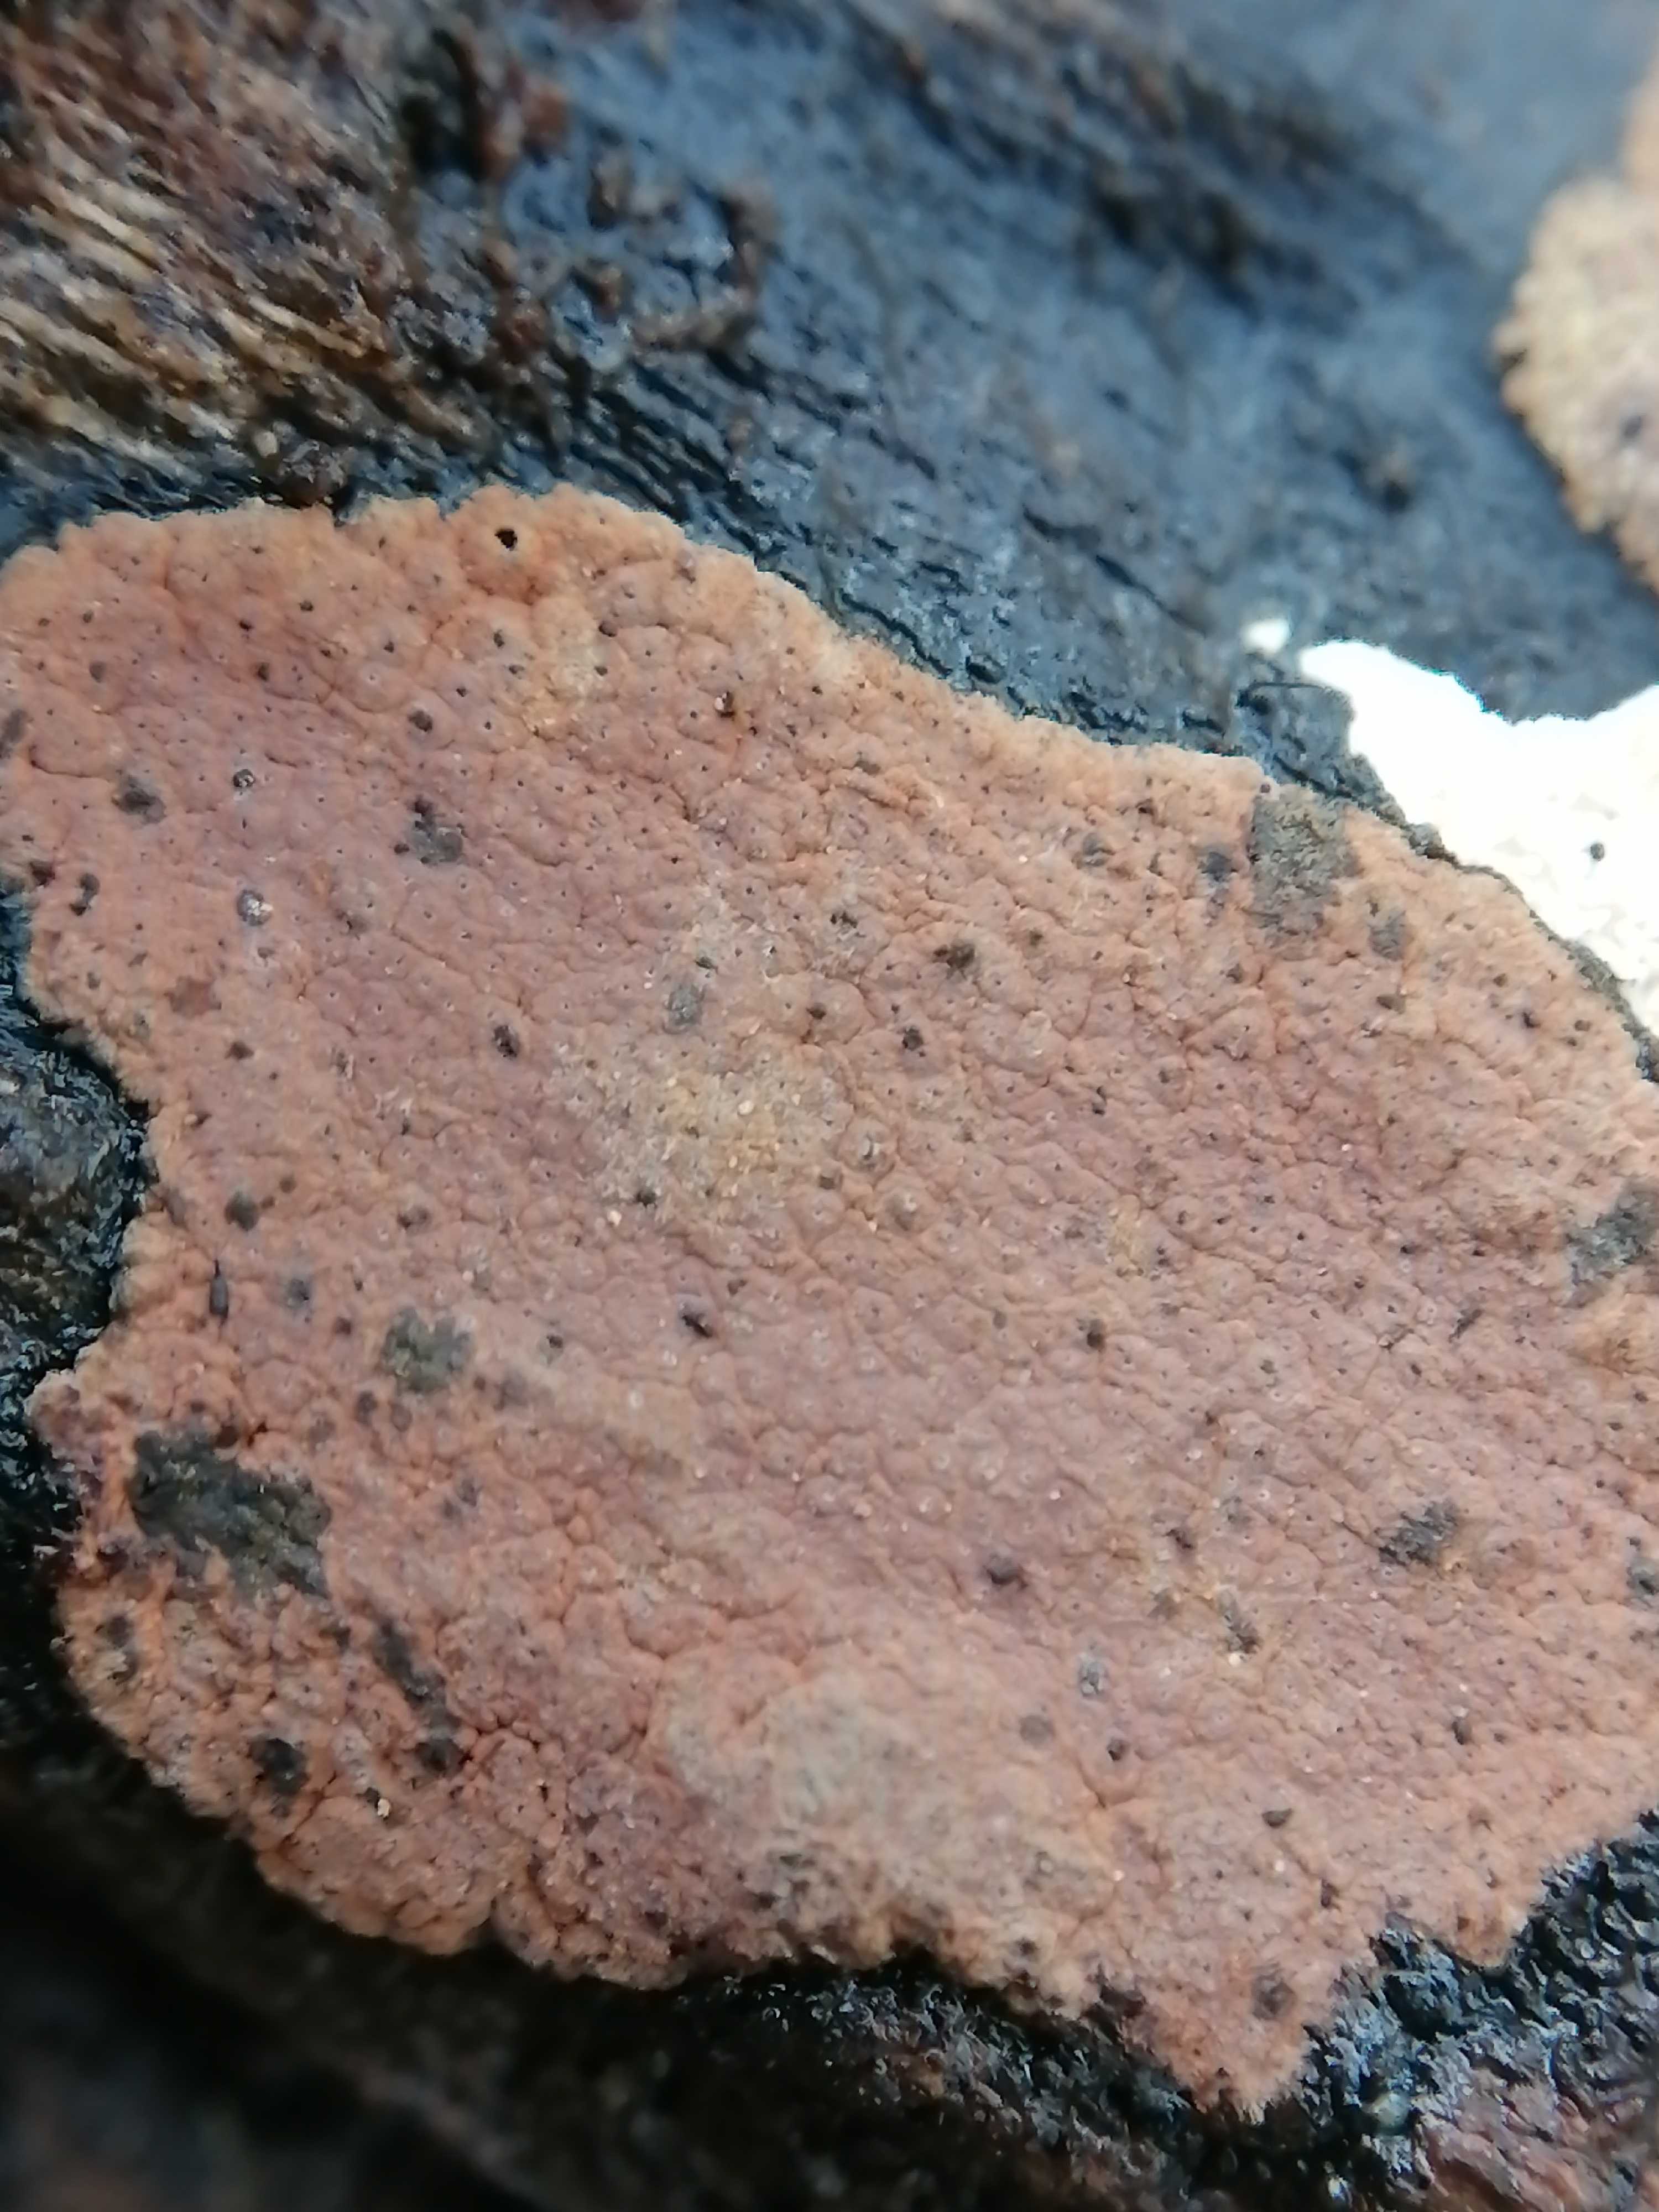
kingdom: Fungi
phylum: Ascomycota
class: Sordariomycetes
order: Xylariales
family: Hypoxylaceae
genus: Hypoxylon
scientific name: Hypoxylon rubiginosum
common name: rustfarvet kulbær
